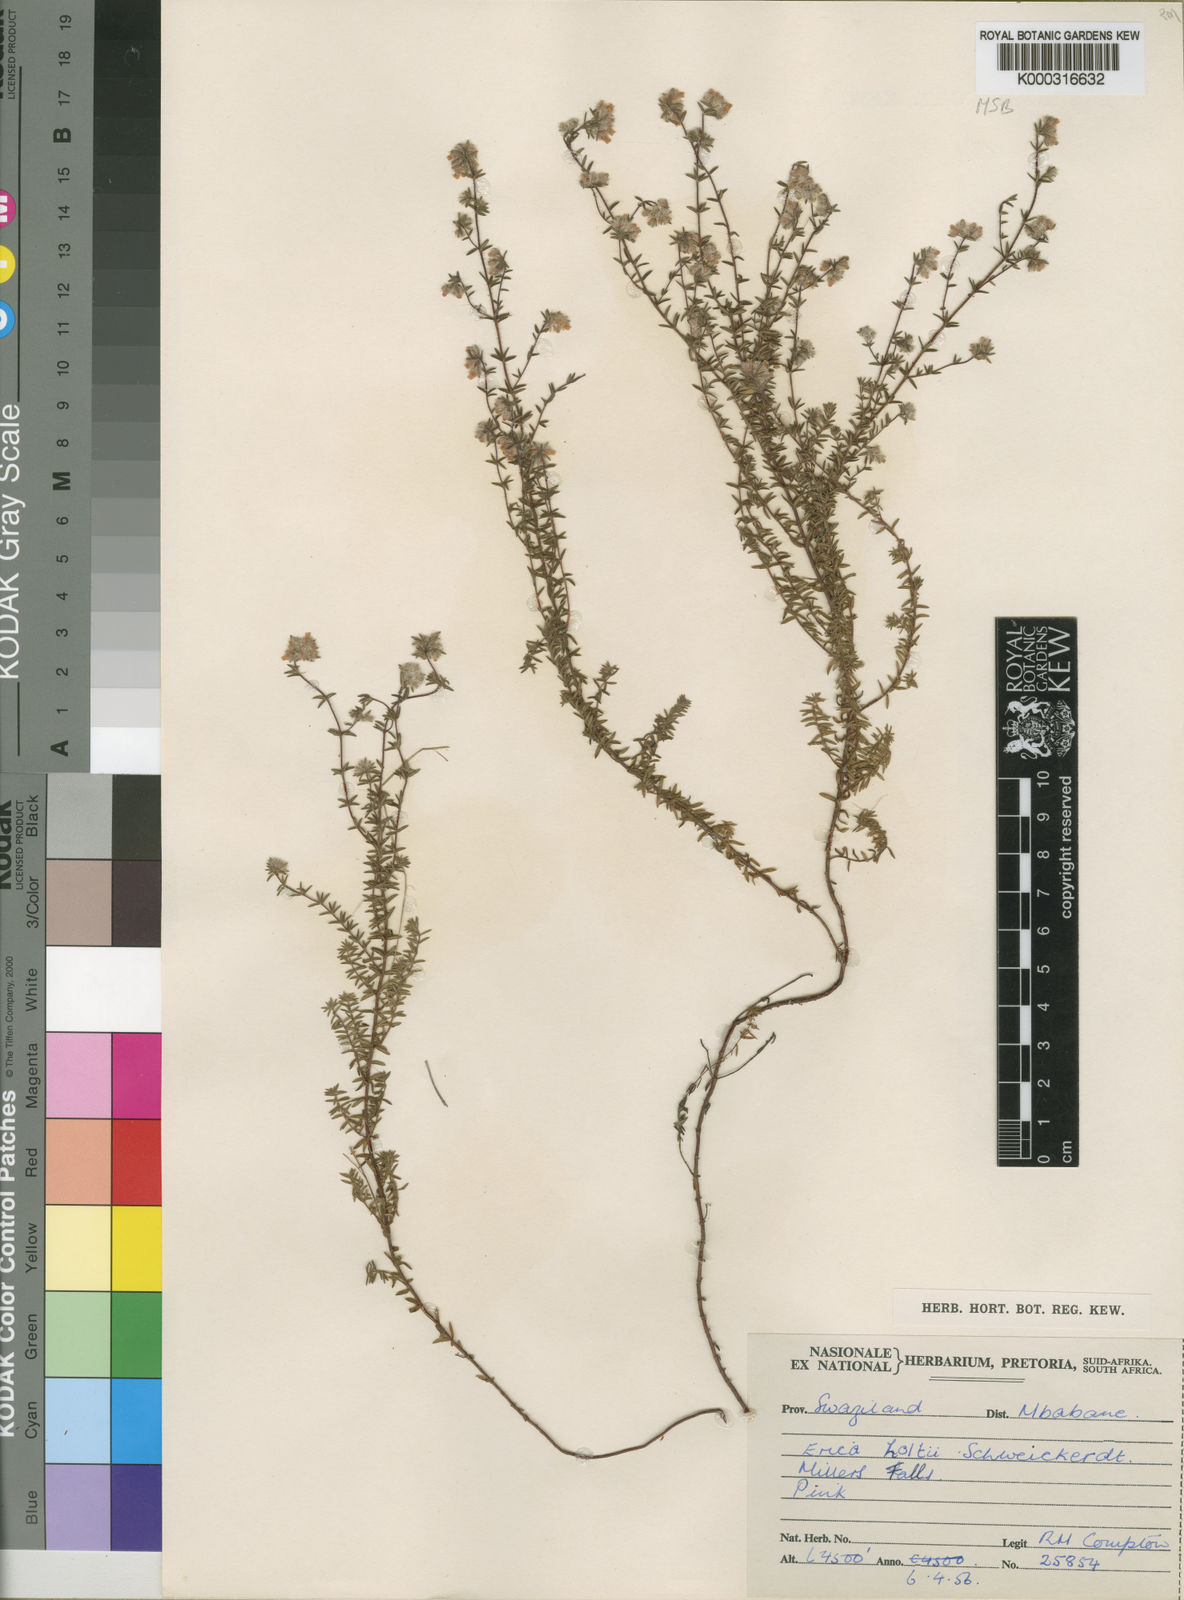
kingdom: Plantae
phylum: Tracheophyta
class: Magnoliopsida
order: Ericales
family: Ericaceae
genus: Erica
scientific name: Erica holtii
